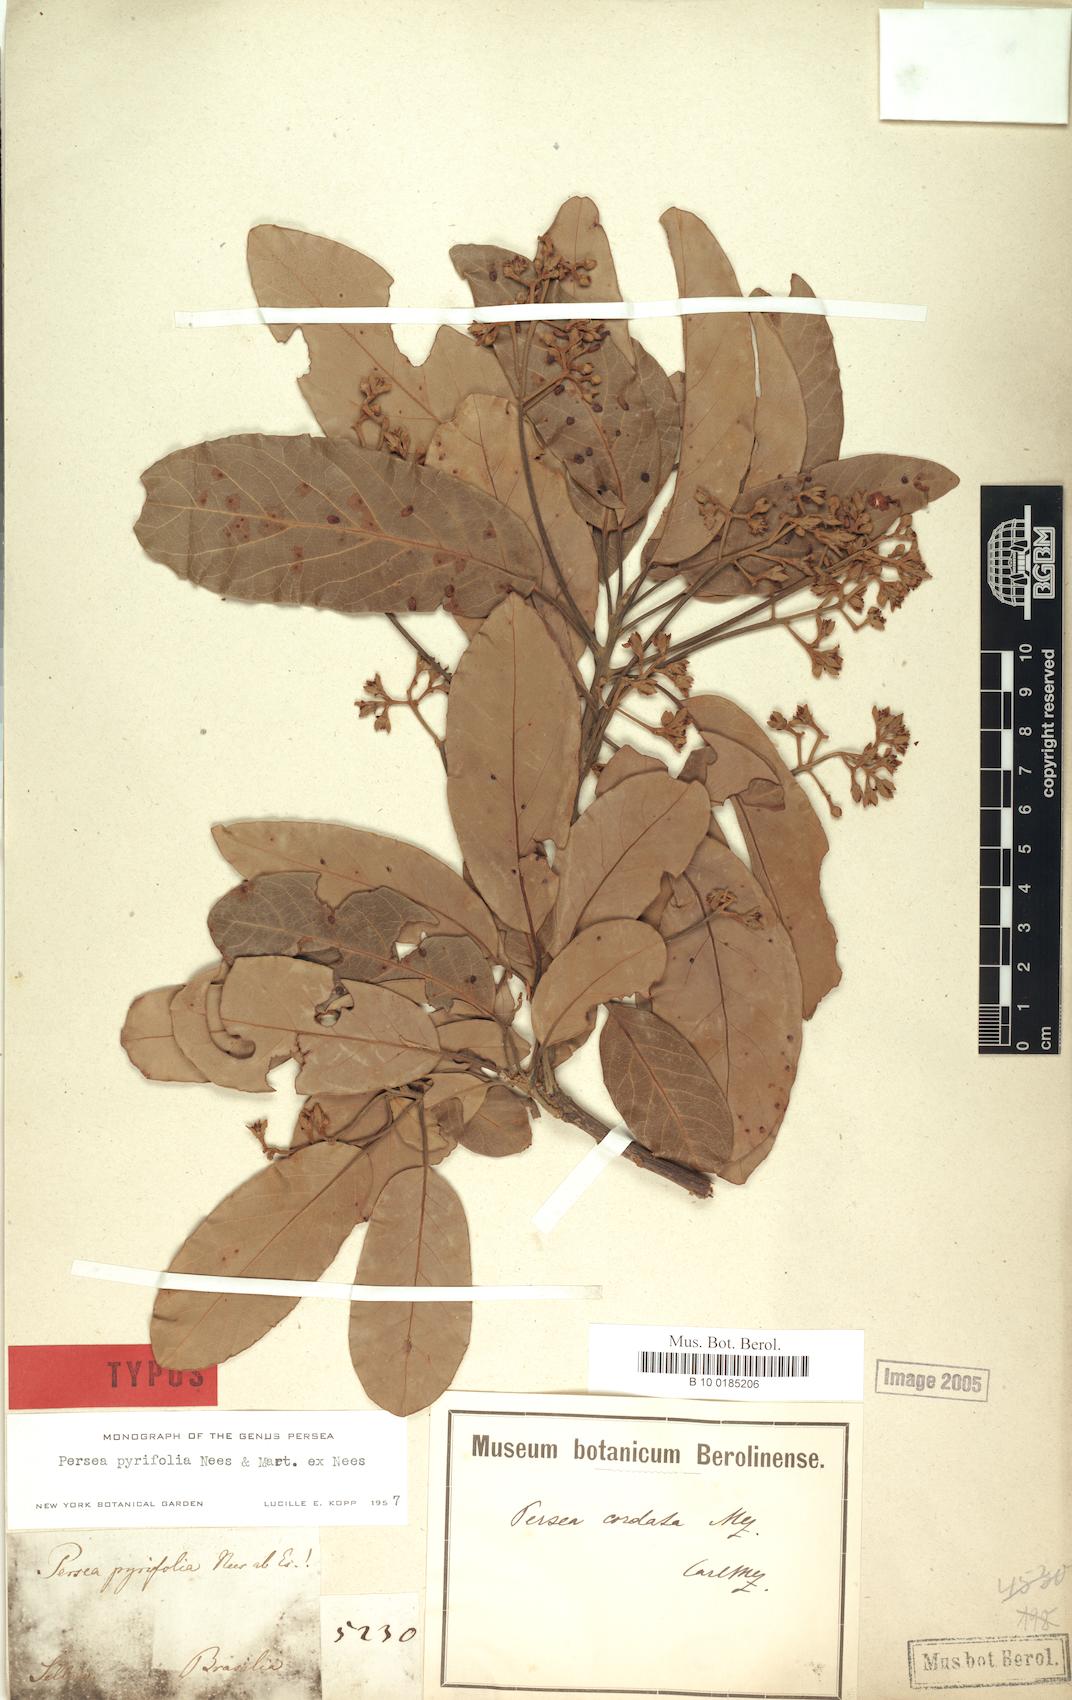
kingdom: Plantae
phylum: Tracheophyta
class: Magnoliopsida
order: Laurales
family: Lauraceae
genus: Persea
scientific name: Persea pyrifolia
